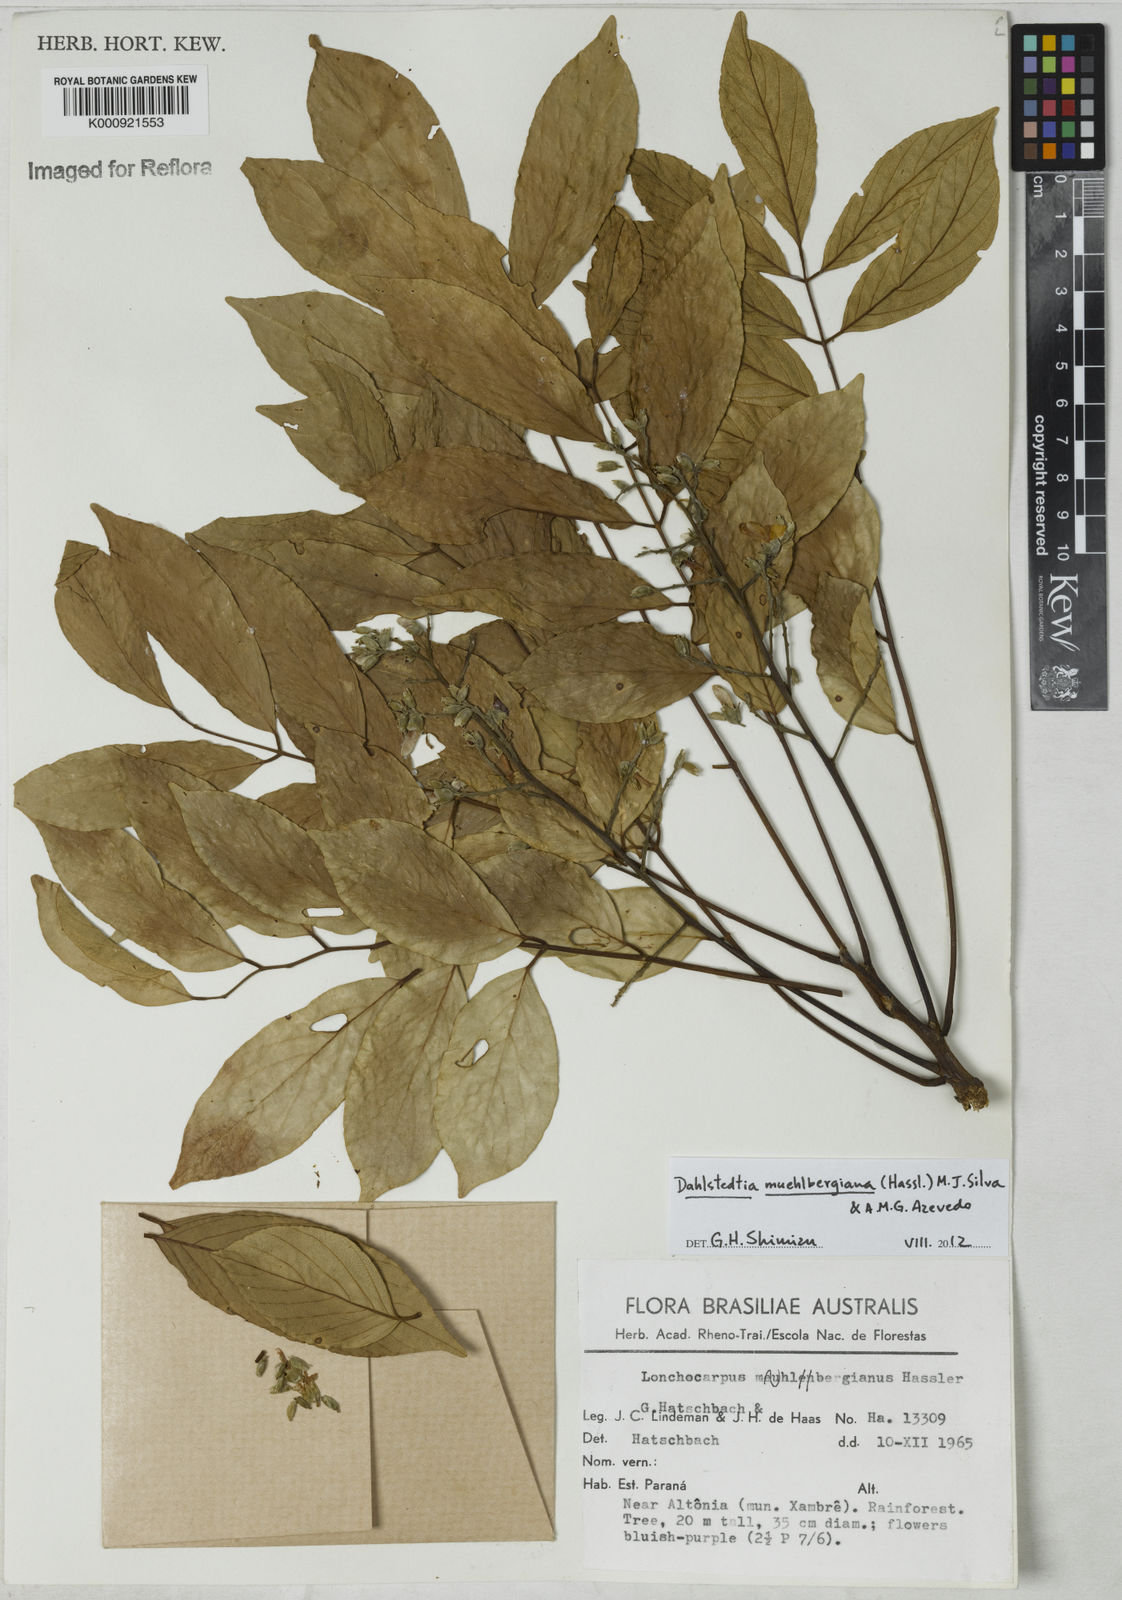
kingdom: Plantae
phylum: Tracheophyta
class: Magnoliopsida
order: Fabales
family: Fabaceae
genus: Dahlstedtia
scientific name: Dahlstedtia muehlbergiana
